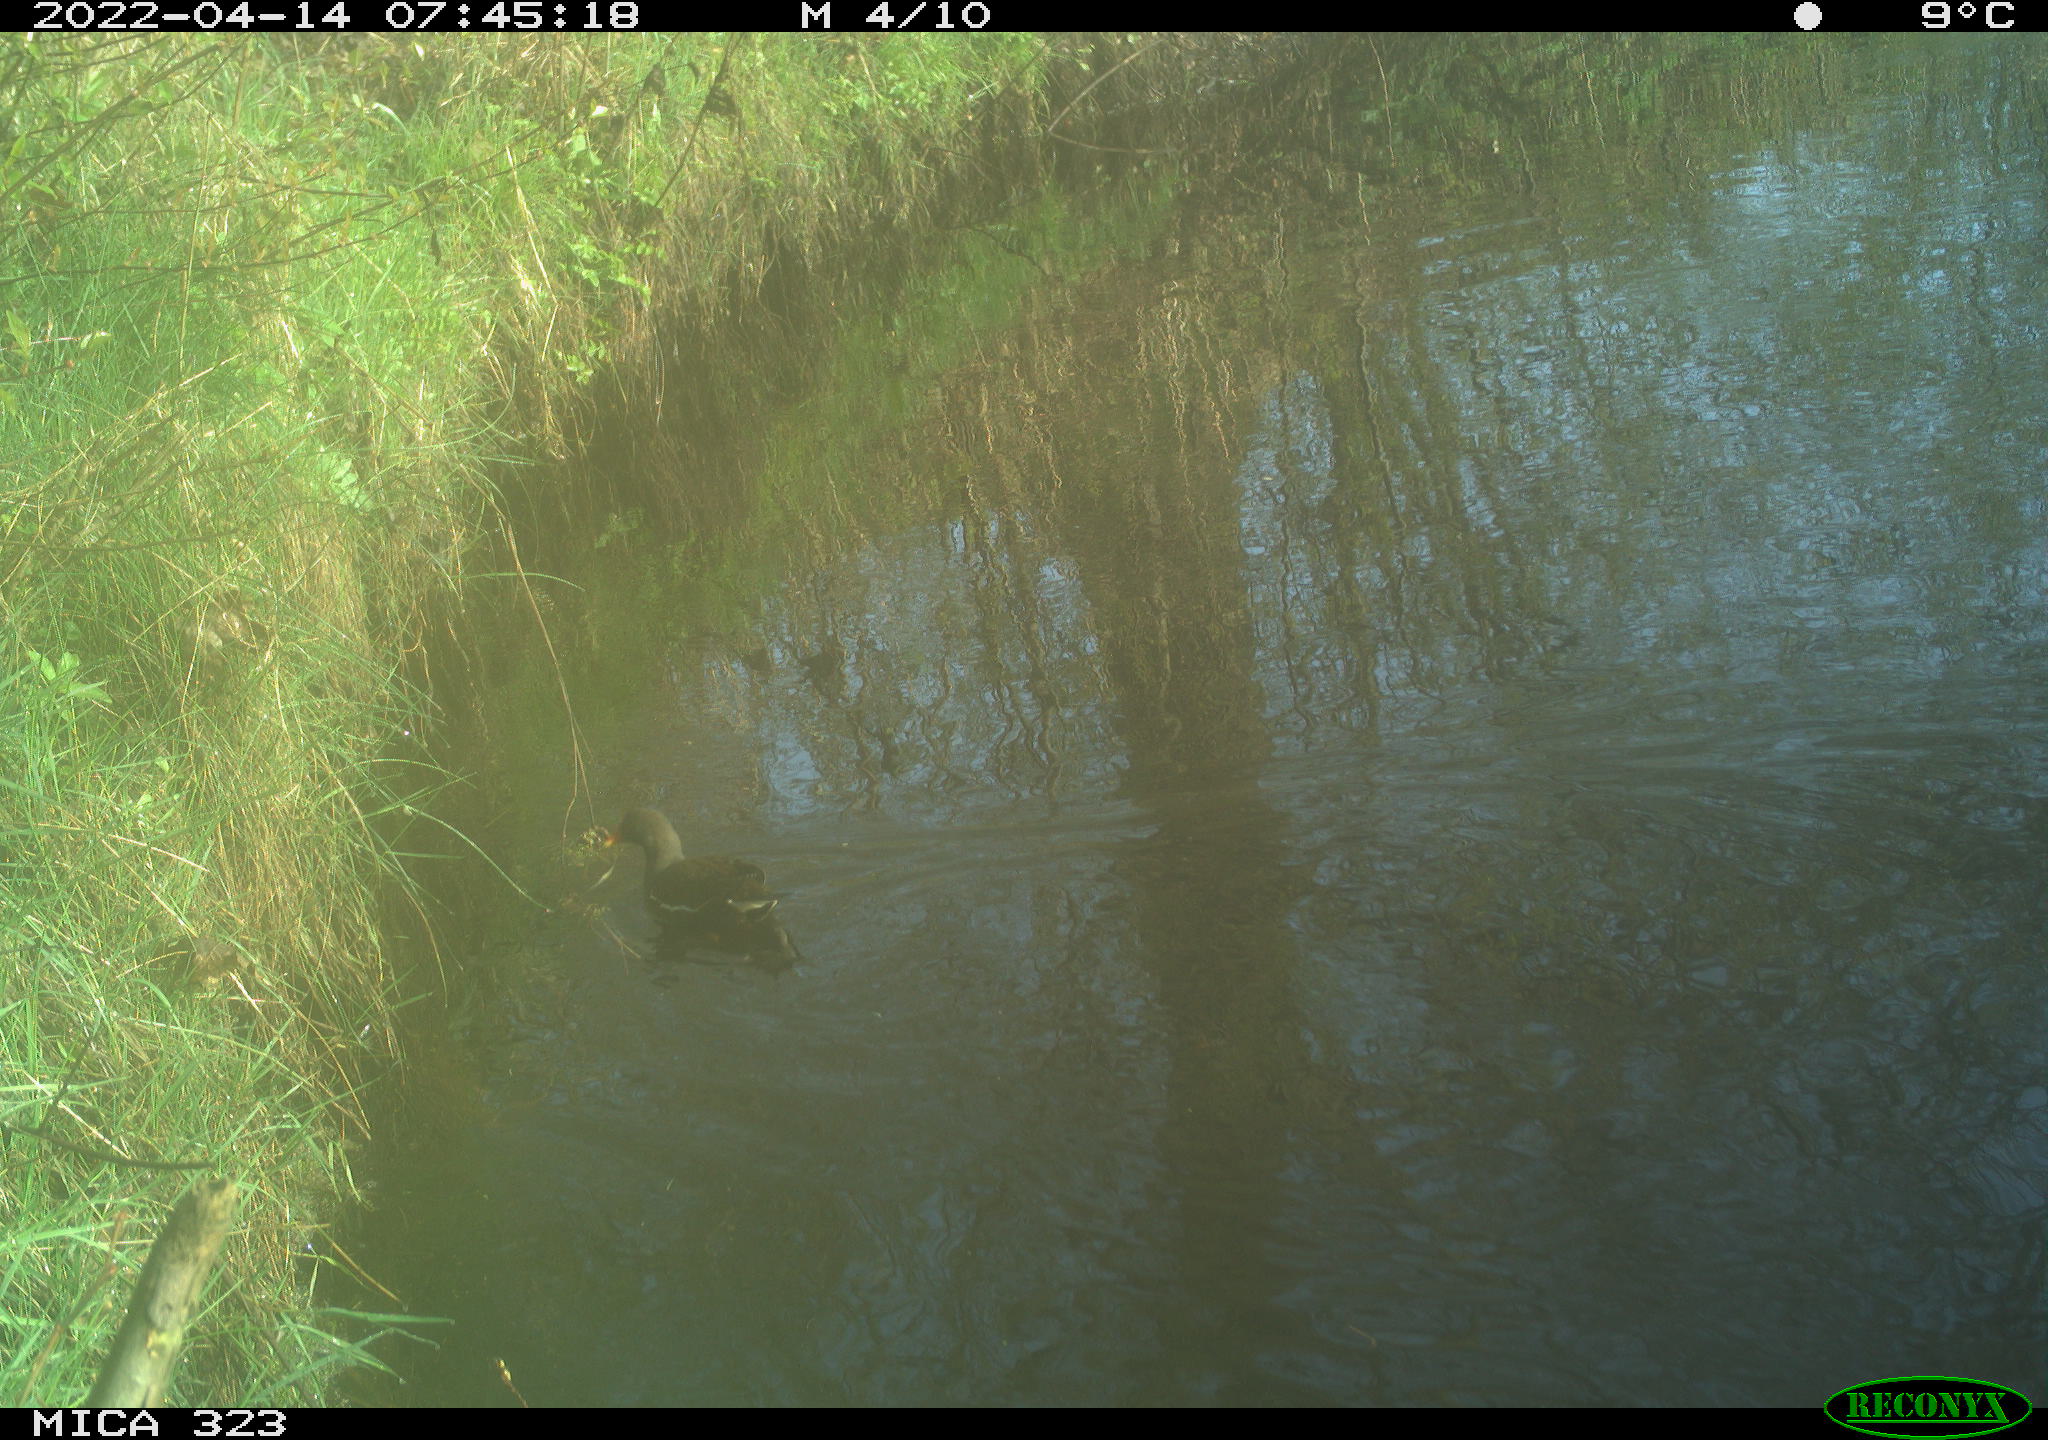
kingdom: Animalia
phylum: Chordata
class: Aves
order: Gruiformes
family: Rallidae
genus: Gallinula
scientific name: Gallinula chloropus
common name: Common moorhen
